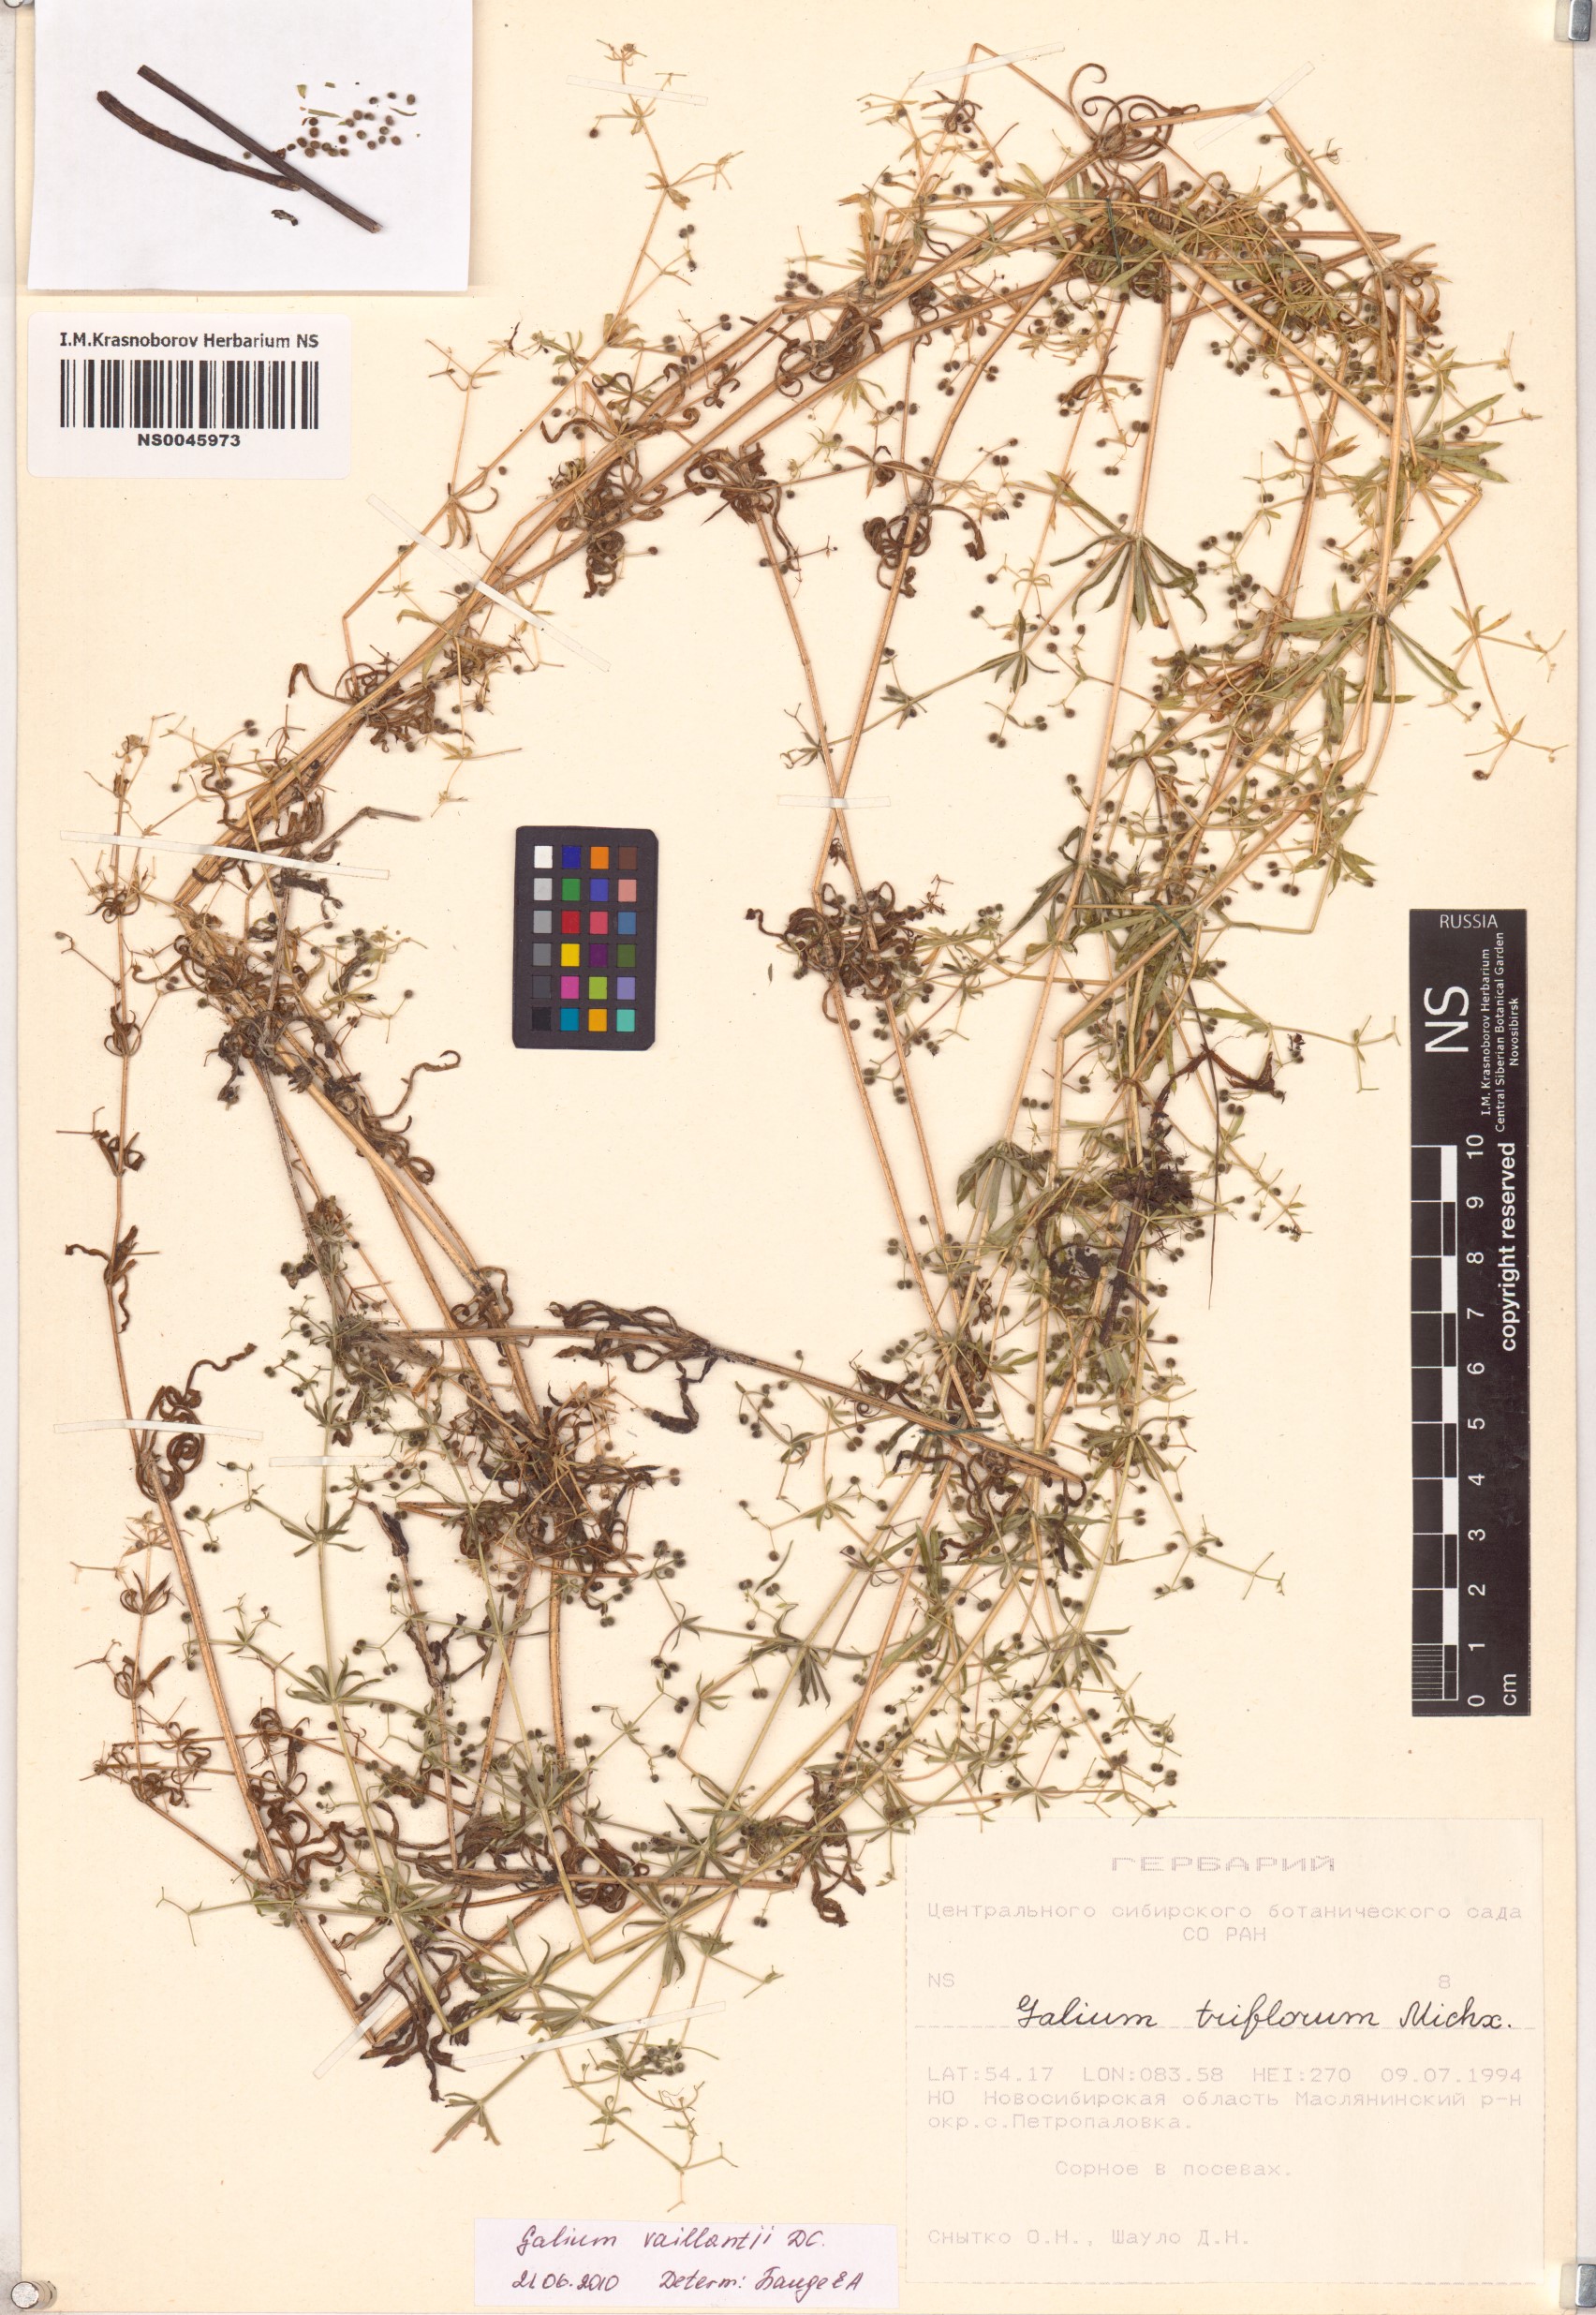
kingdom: Plantae
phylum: Tracheophyta
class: Magnoliopsida
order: Gentianales
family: Rubiaceae
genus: Galium
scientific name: Galium spurium
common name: False cleavers
